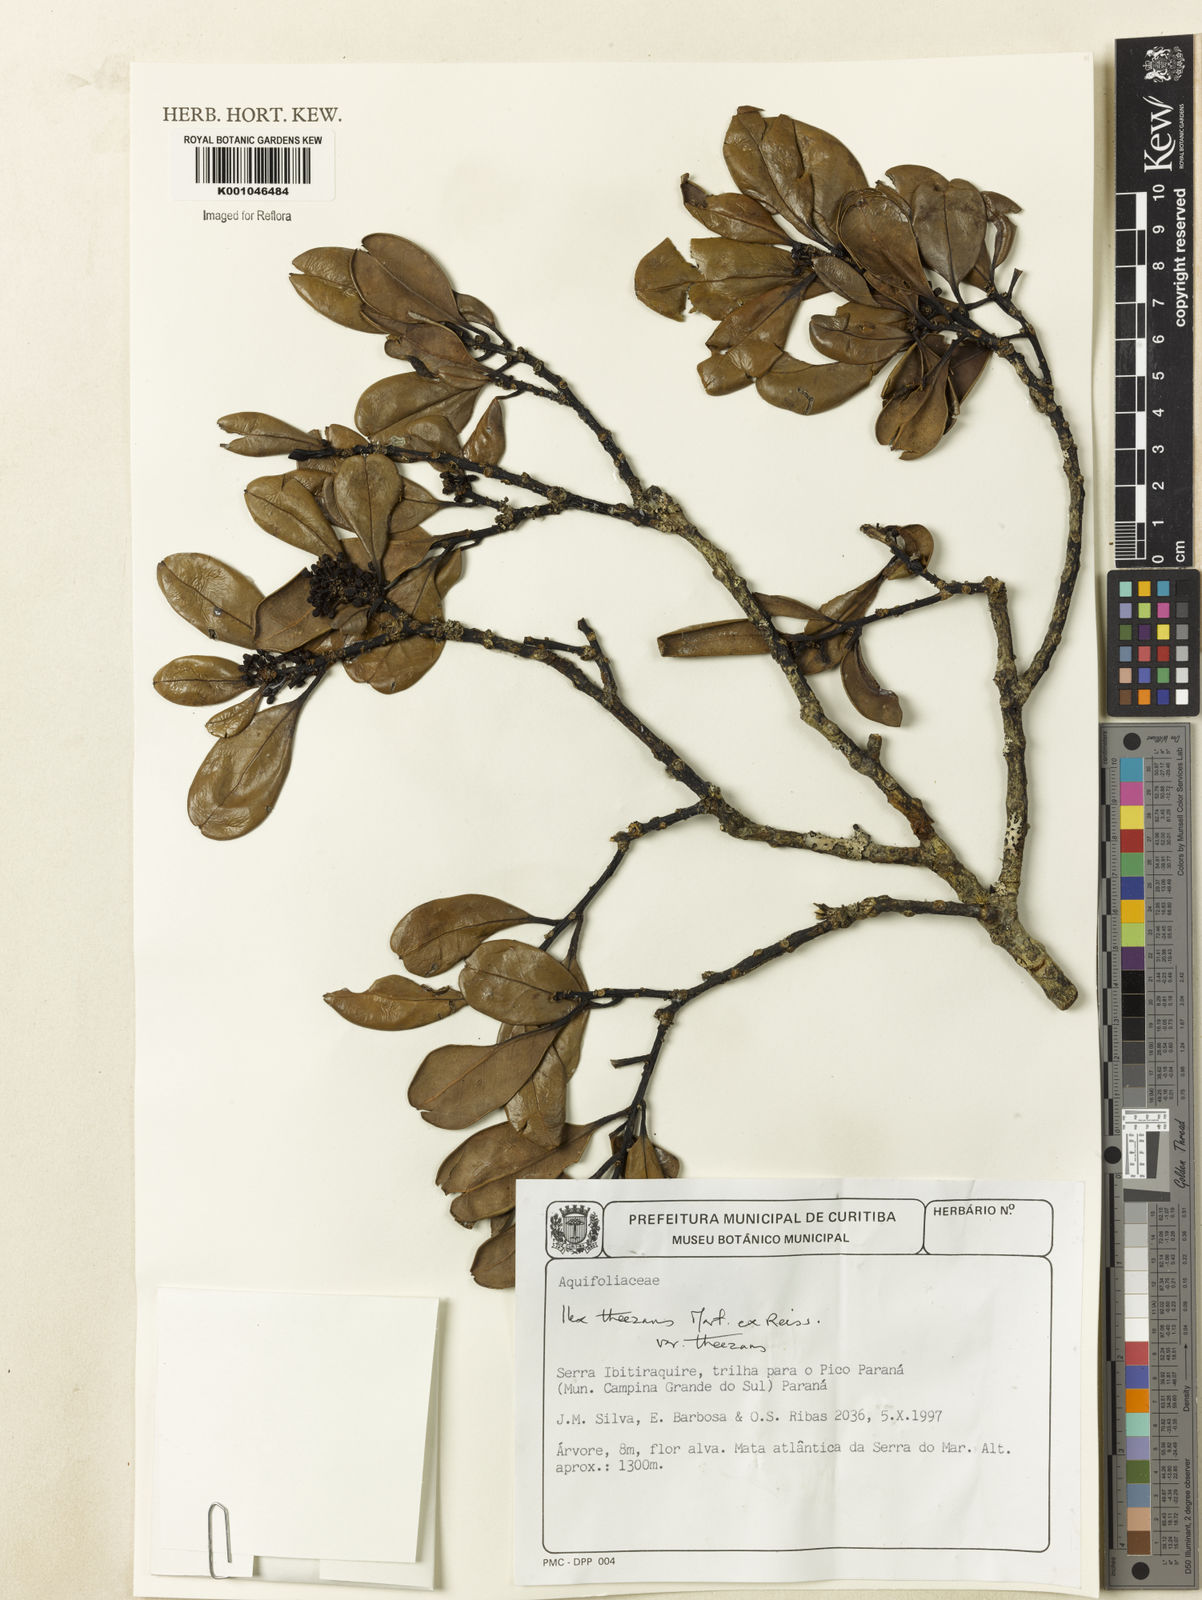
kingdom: Plantae
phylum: Tracheophyta
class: Magnoliopsida
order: Aquifoliales
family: Aquifoliaceae
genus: Ilex
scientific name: Ilex paraguariensis
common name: Paraguay tea
